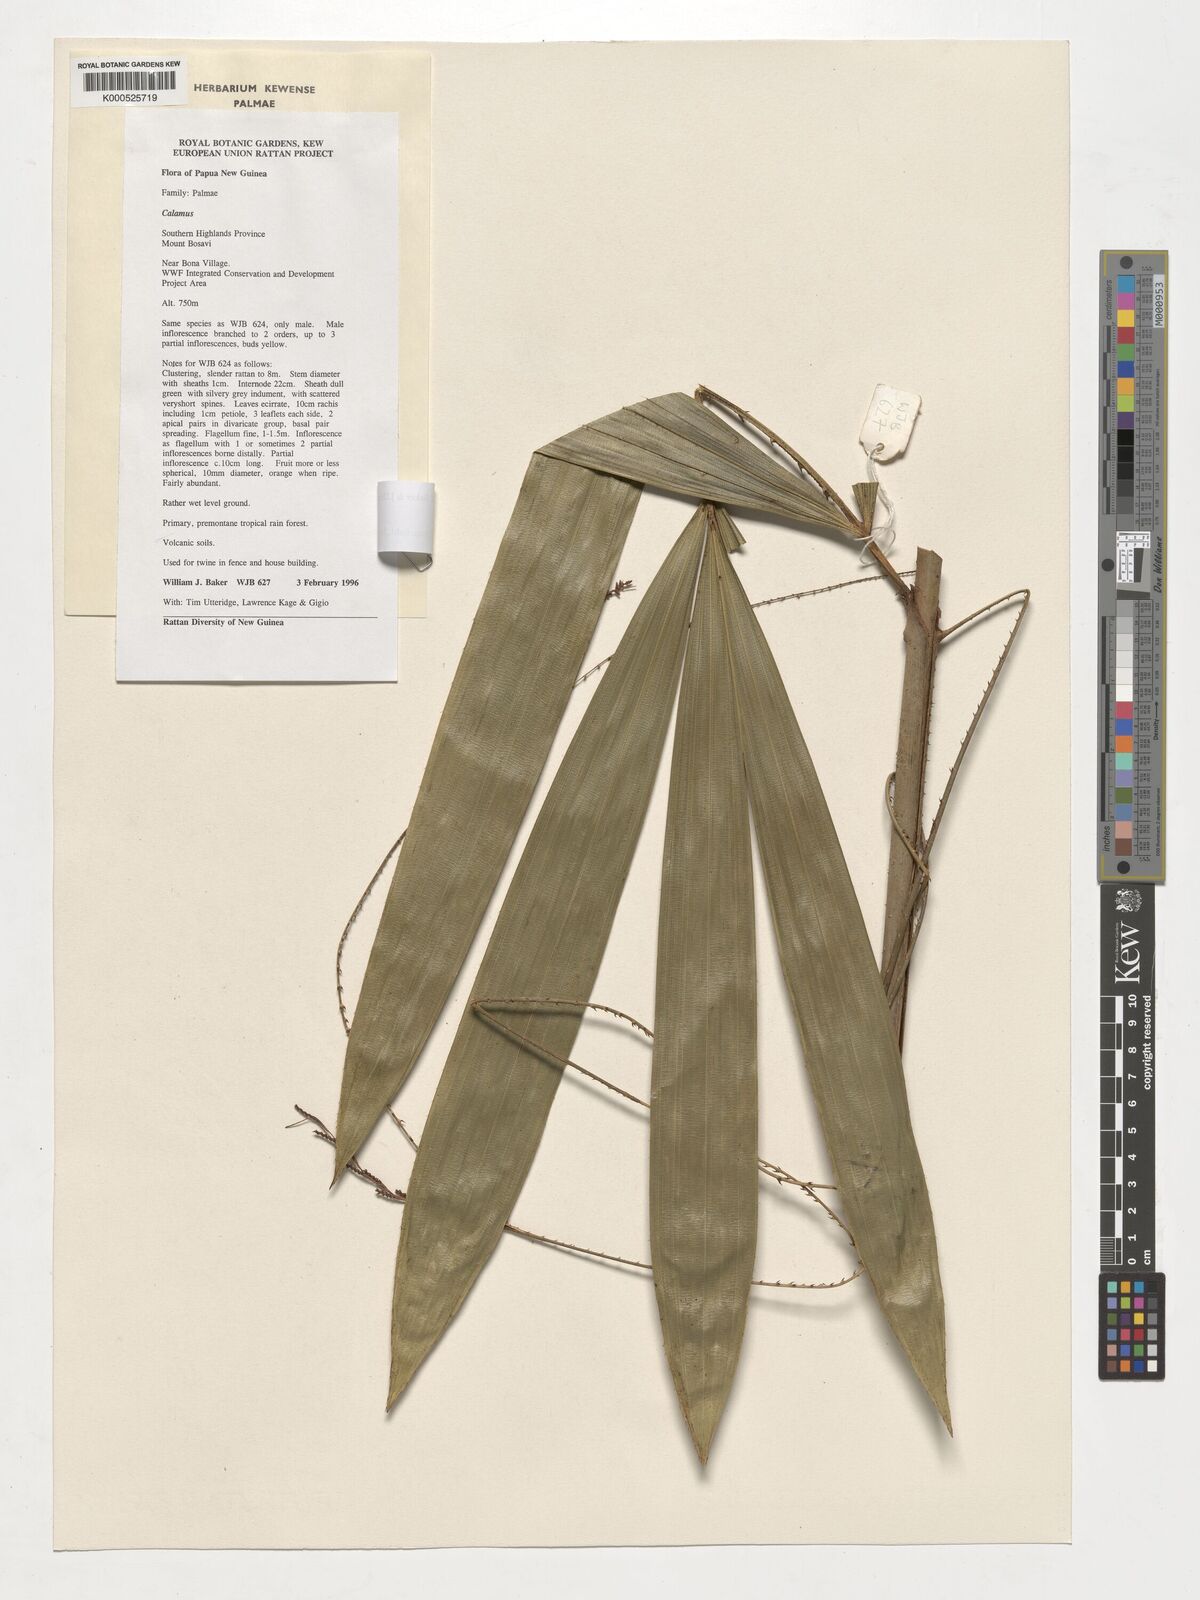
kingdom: Plantae
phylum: Tracheophyta
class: Liliopsida
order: Arecales
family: Arecaceae
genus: Calamus
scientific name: Calamus
